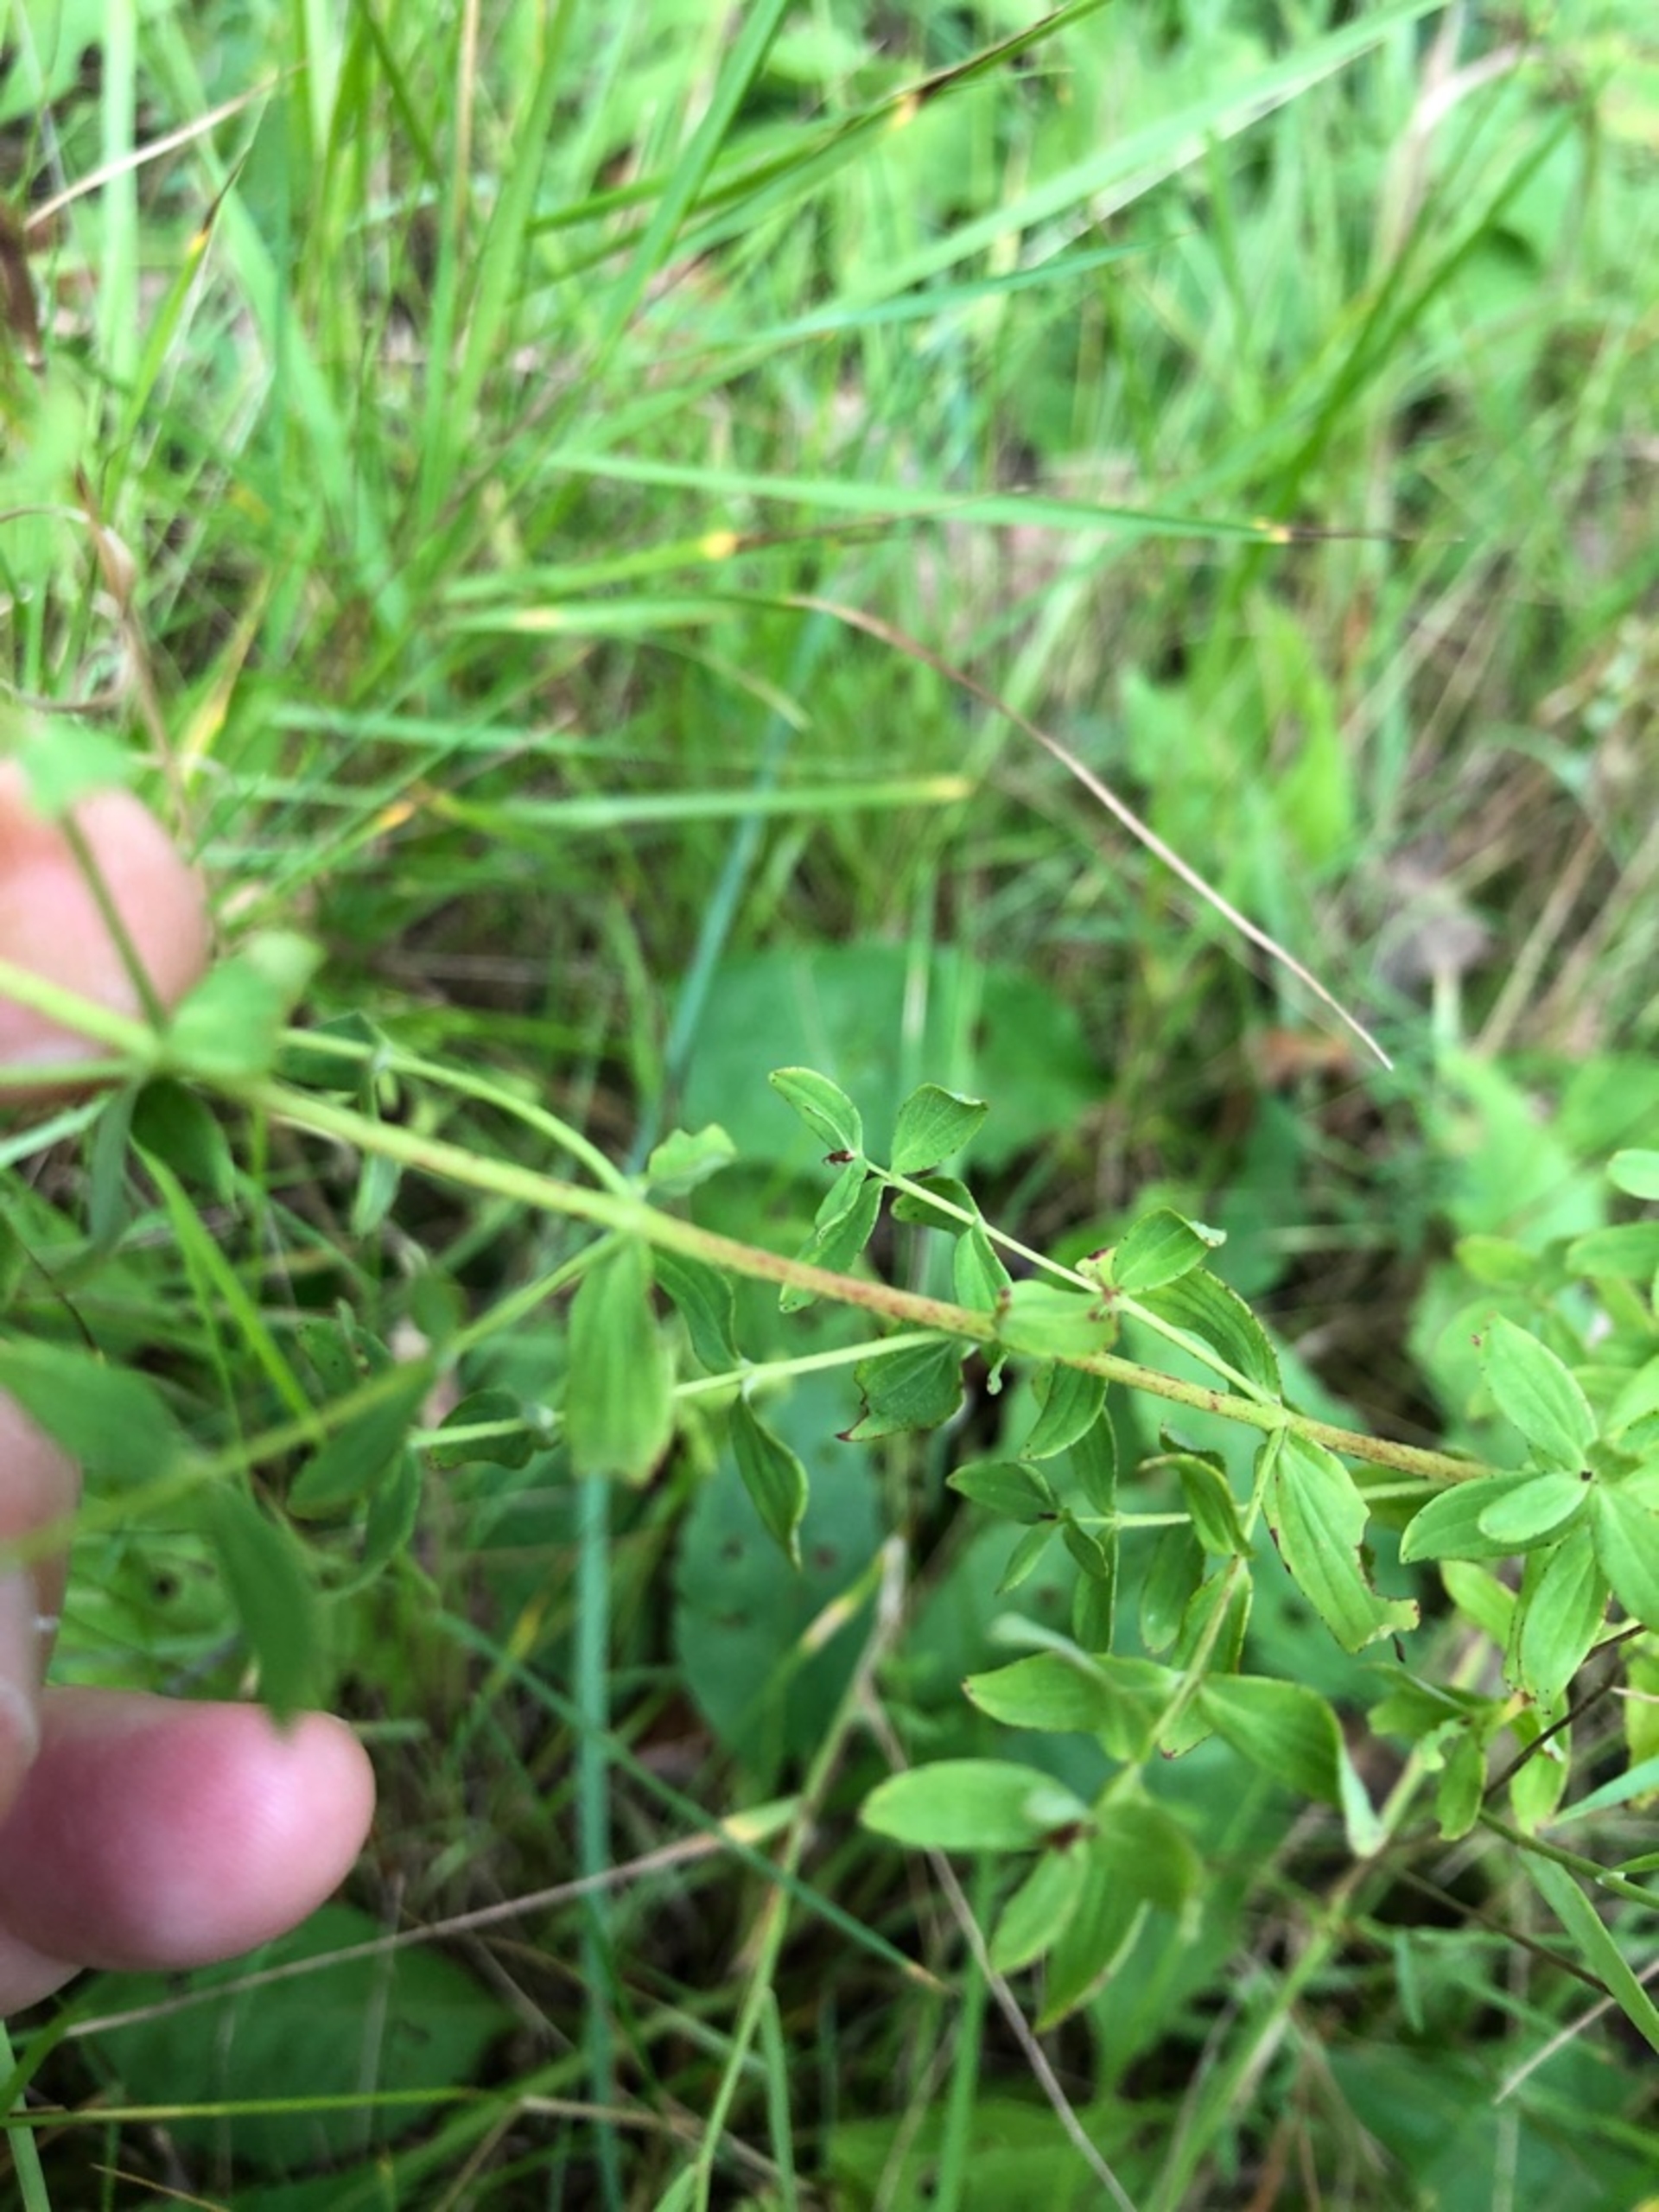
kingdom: Plantae
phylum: Tracheophyta
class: Magnoliopsida
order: Malpighiales
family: Hypericaceae
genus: Hypericum
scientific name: Hypericum perforatum
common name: Prikbladet perikon
